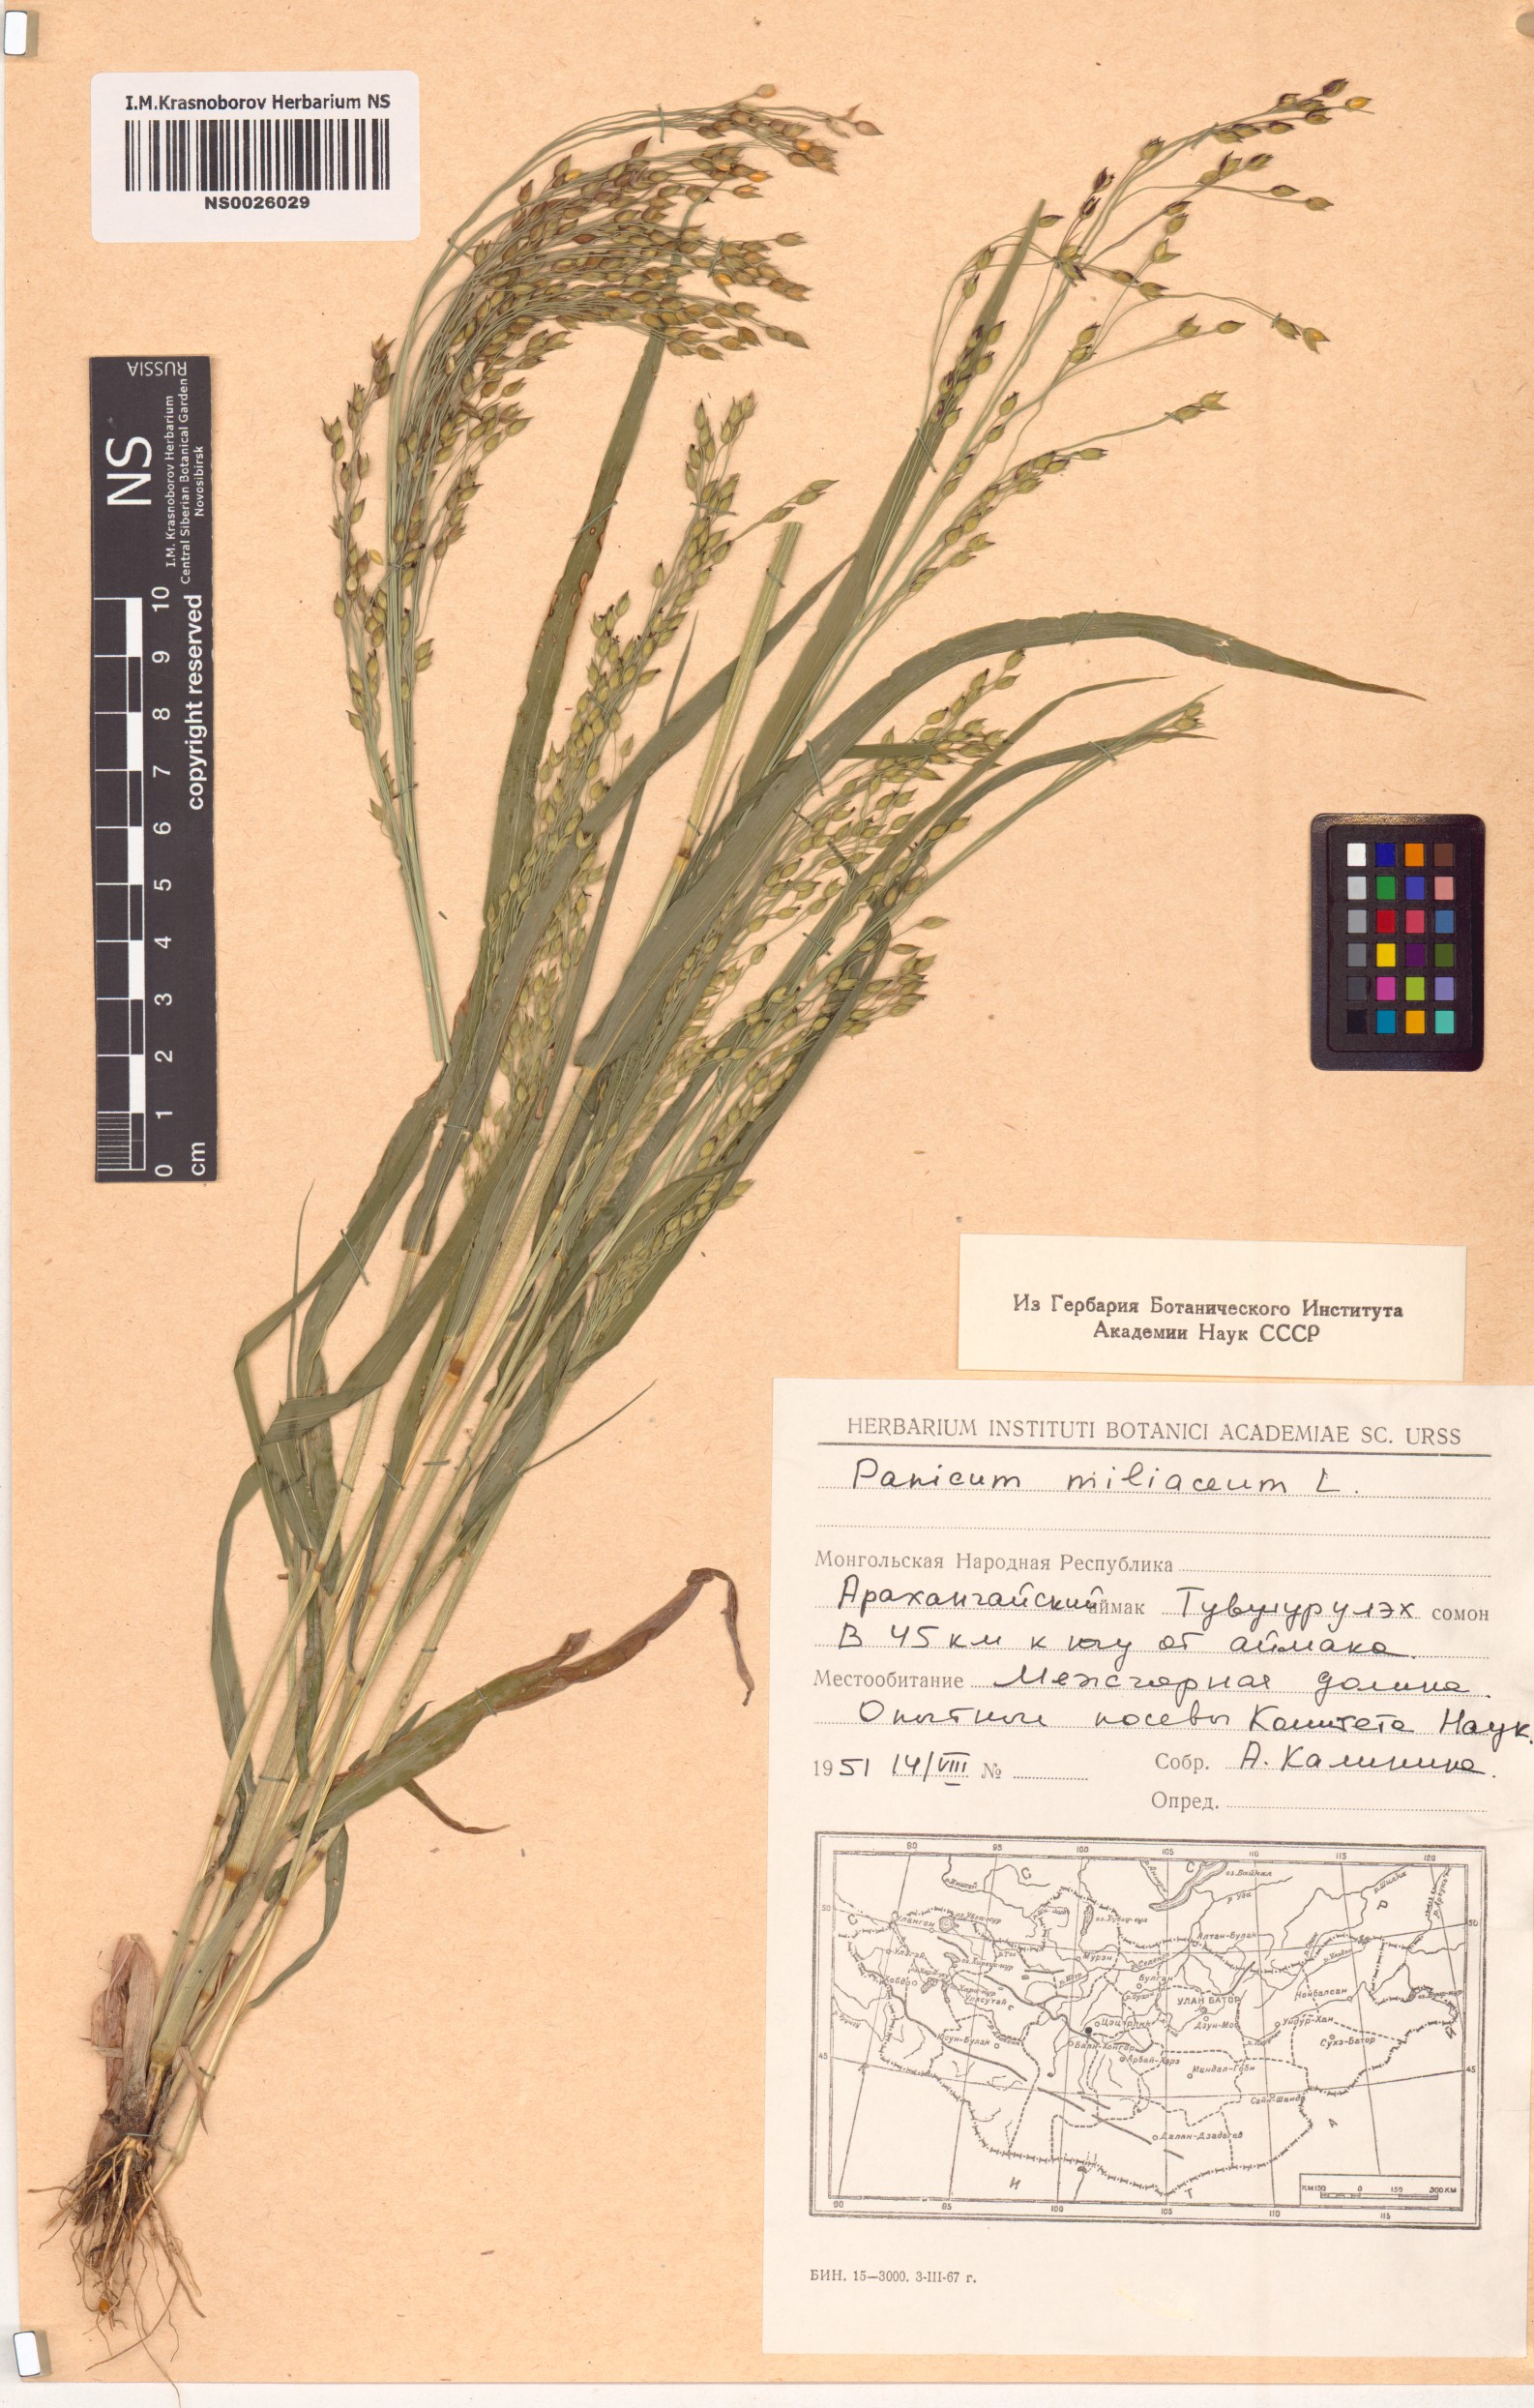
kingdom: Plantae
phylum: Tracheophyta
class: Liliopsida
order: Poales
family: Poaceae
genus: Panicum
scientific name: Panicum miliaceum
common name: Common millet
